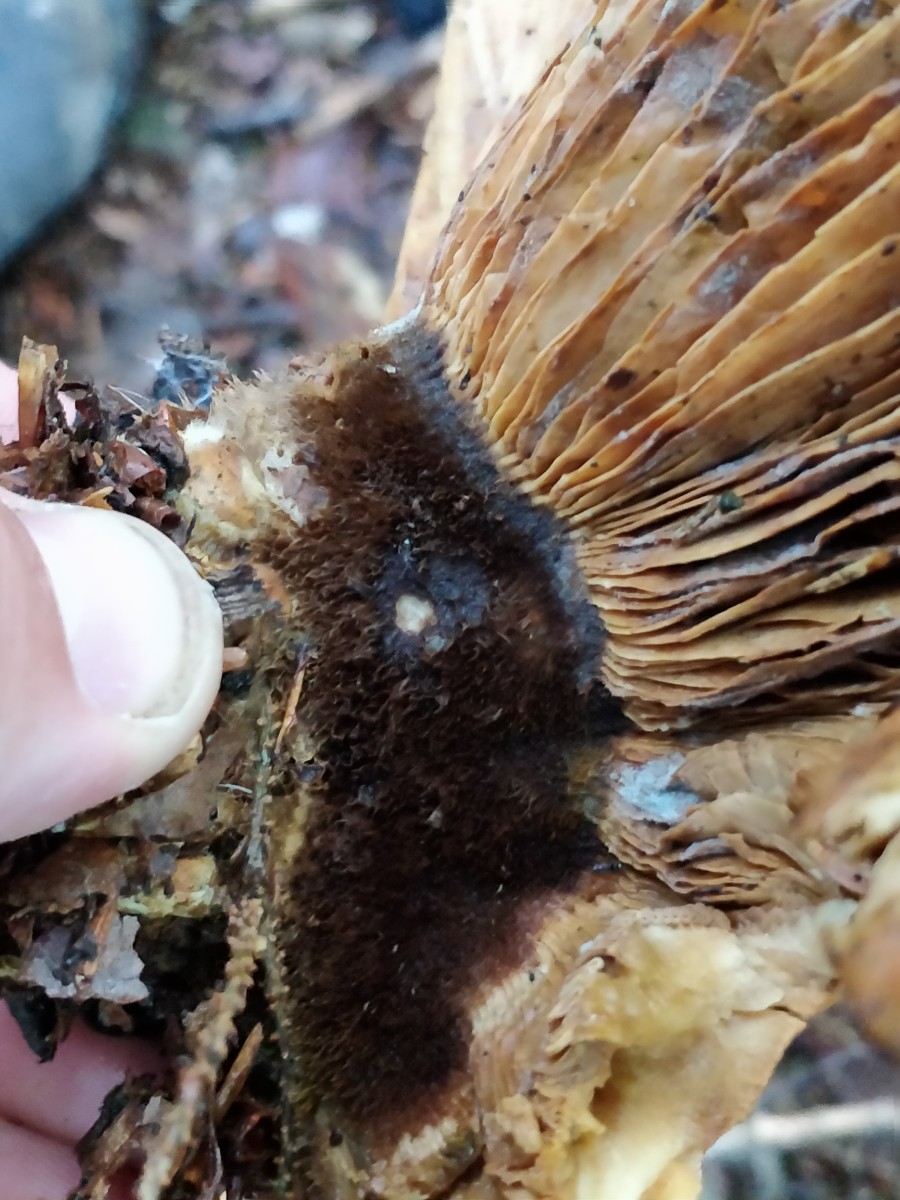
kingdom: Fungi
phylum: Basidiomycota
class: Agaricomycetes
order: Boletales
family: Tapinellaceae
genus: Tapinella
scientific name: Tapinella atrotomentosa
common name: sortfiltet viftesvamp
